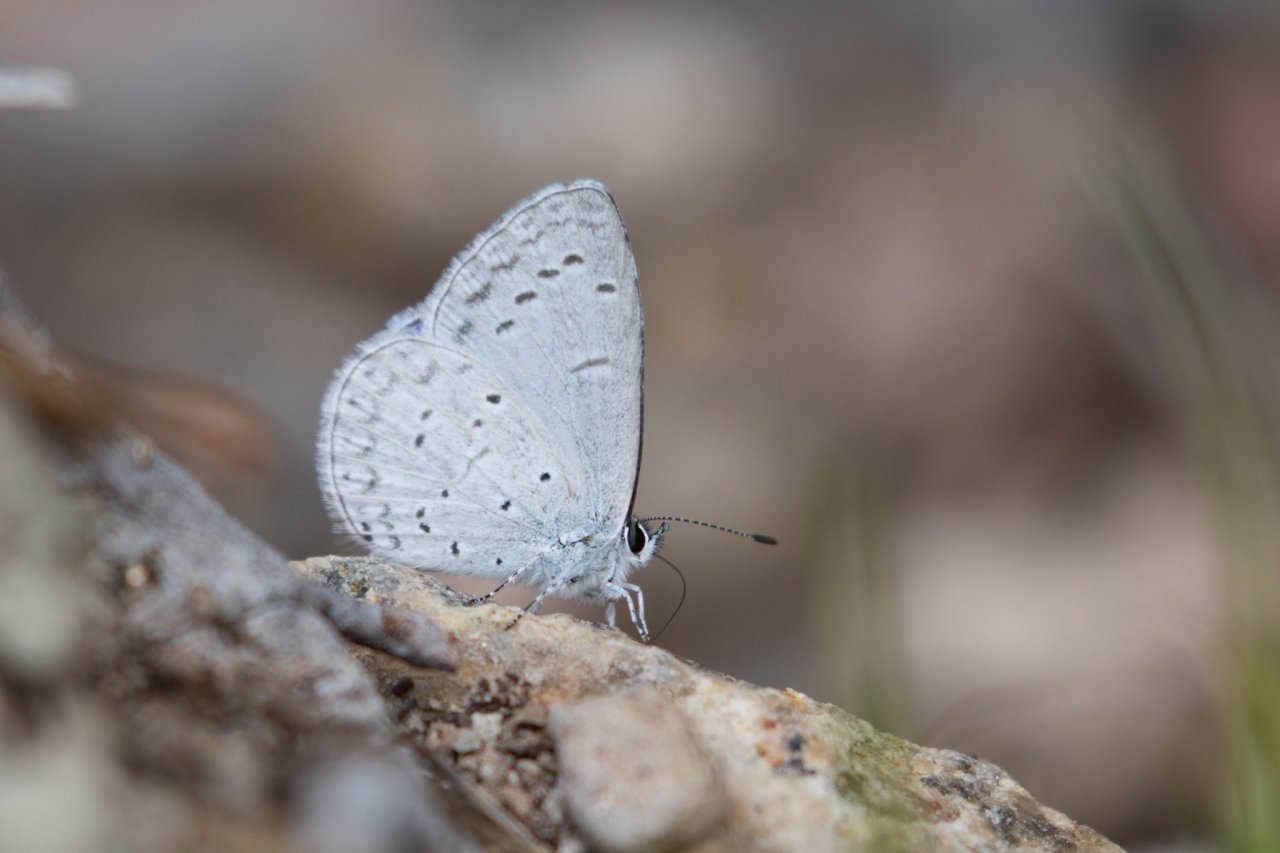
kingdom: Animalia
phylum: Arthropoda
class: Insecta
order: Lepidoptera
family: Lycaenidae
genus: Celastrina
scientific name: Celastrina ladon
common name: Echo Azure
